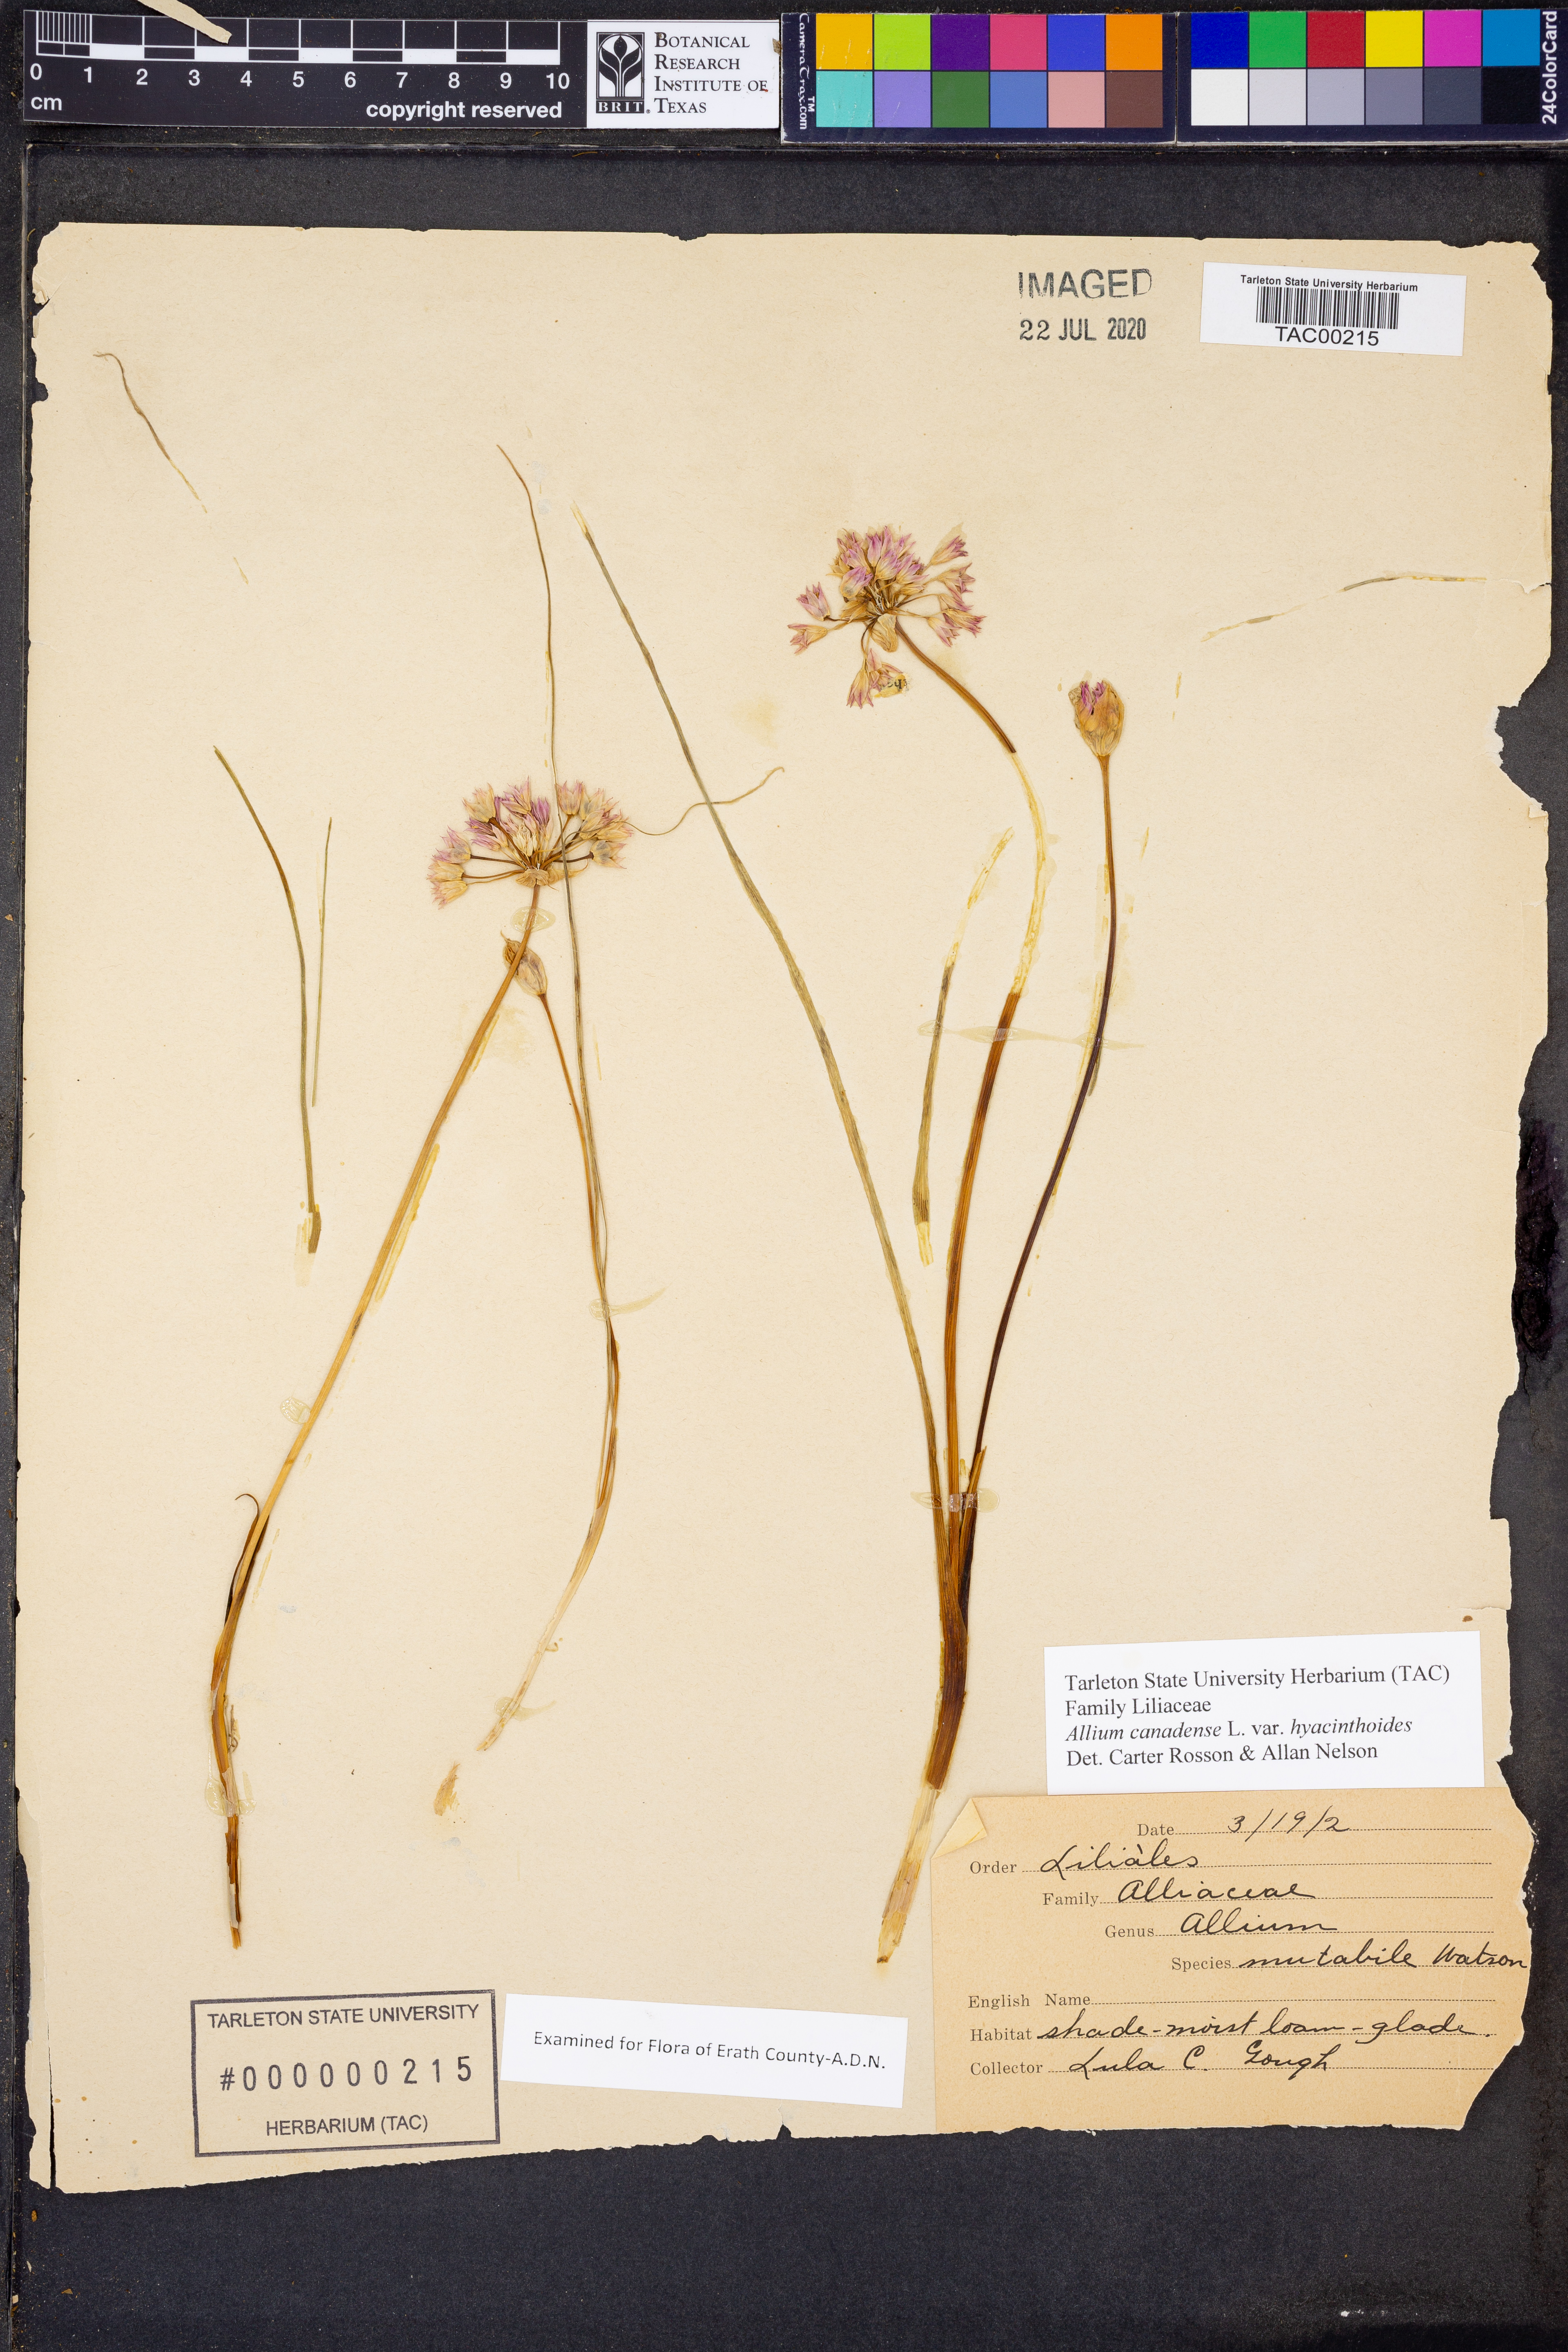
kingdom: Plantae
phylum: Tracheophyta
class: Liliopsida
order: Asparagales
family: Amaryllidaceae
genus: Allium
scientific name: Allium canadense
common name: Meadow garlic
